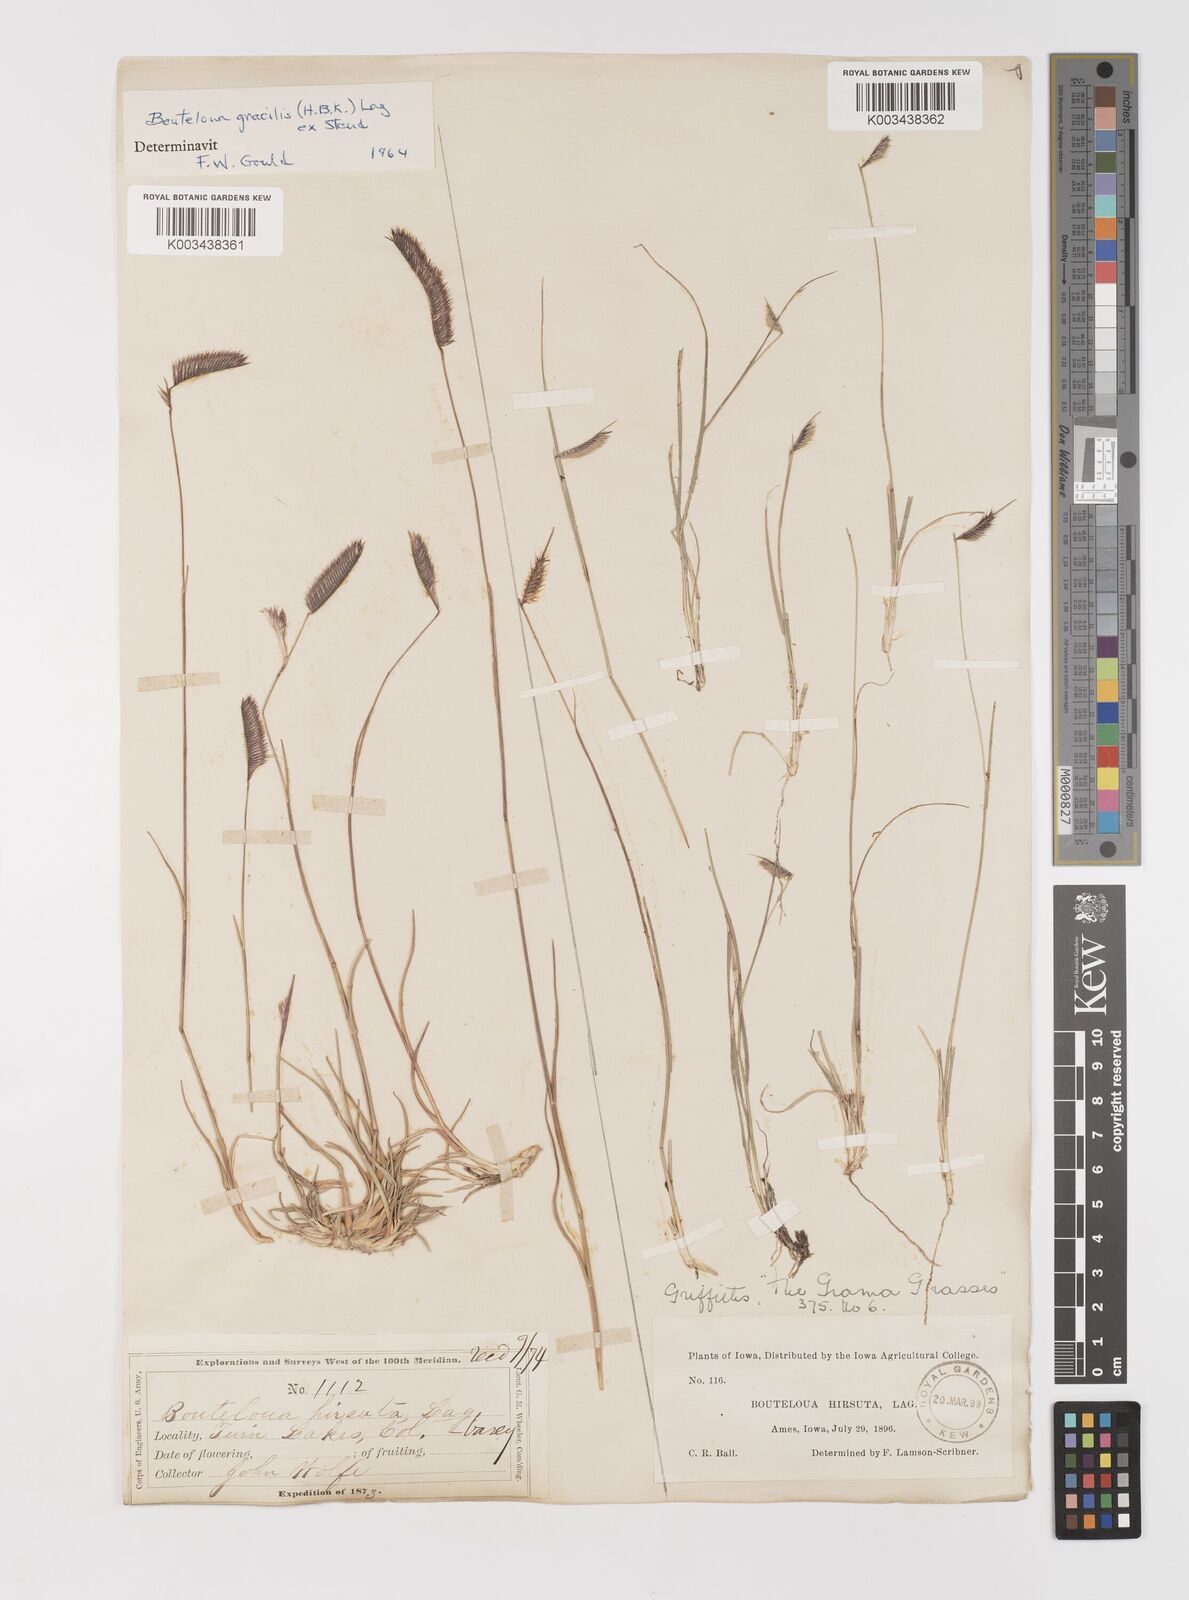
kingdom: Plantae
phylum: Tracheophyta
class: Liliopsida
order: Poales
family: Poaceae
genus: Bouteloua
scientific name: Bouteloua hirsuta
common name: Hairy grama
